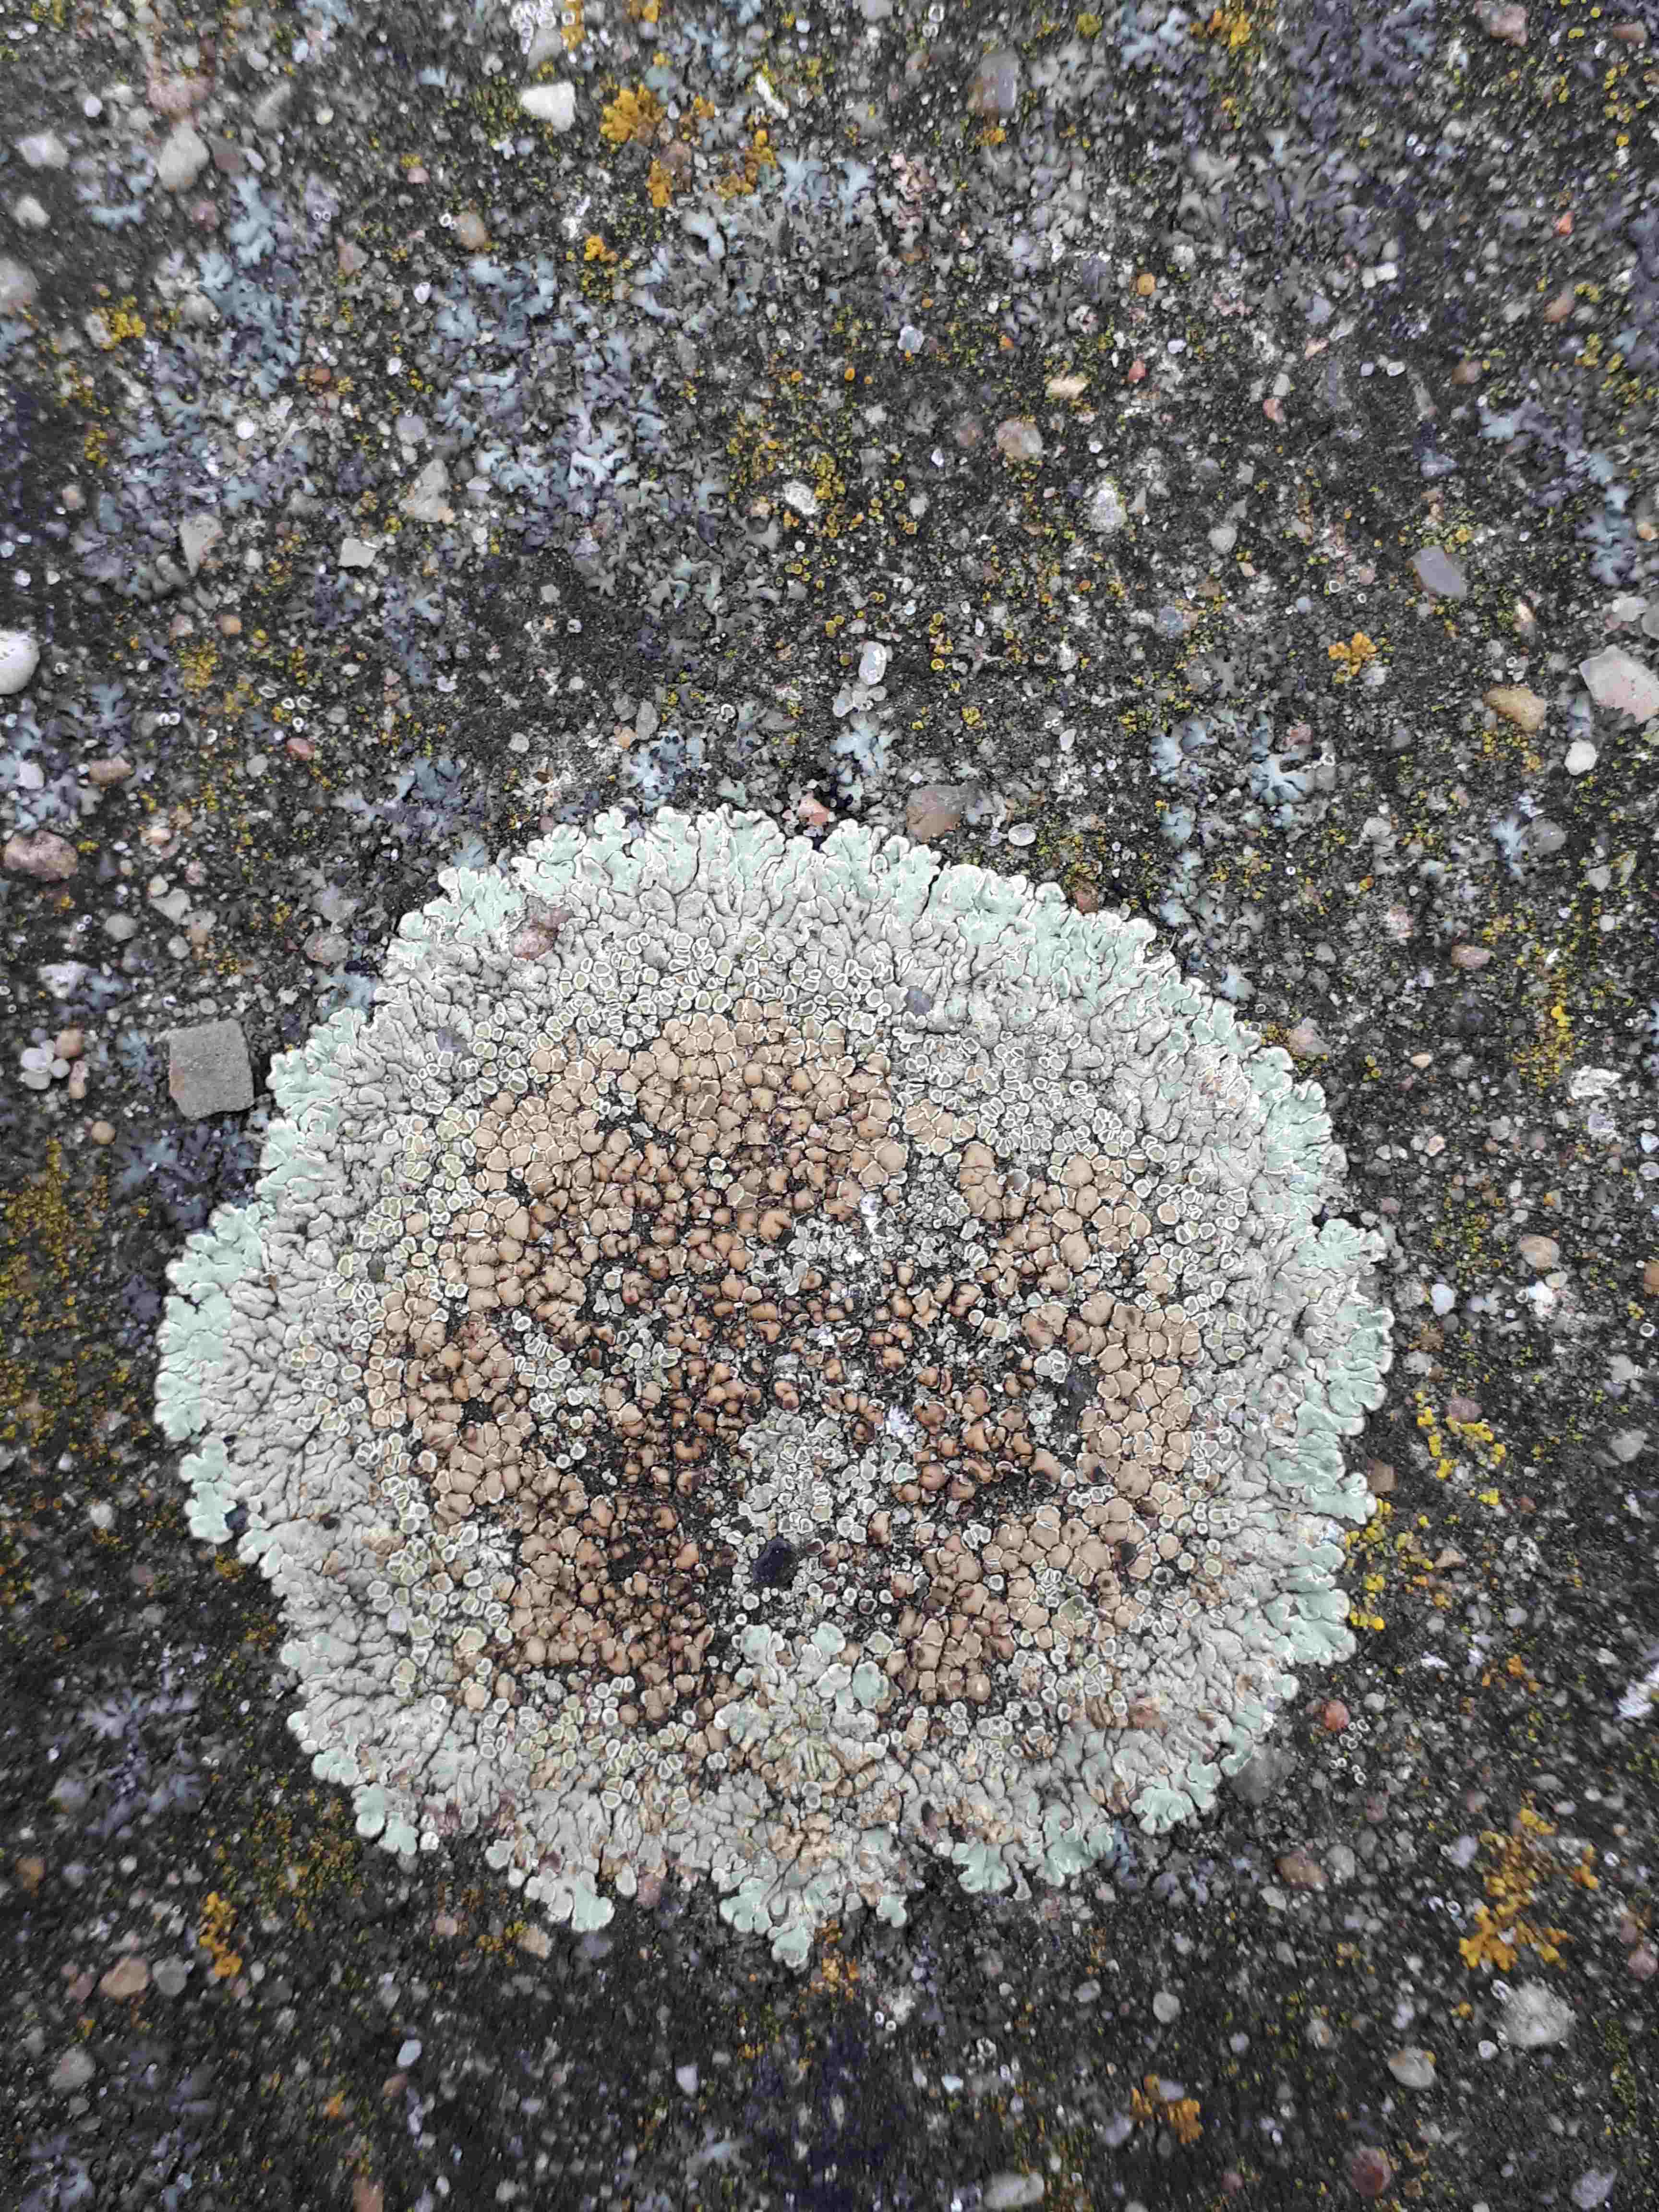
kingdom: Fungi
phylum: Ascomycota
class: Lecanoromycetes
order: Lecanorales
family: Lecanoraceae
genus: Protoparmeliopsis
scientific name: Protoparmeliopsis muralis
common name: randfliget kantskivelav
